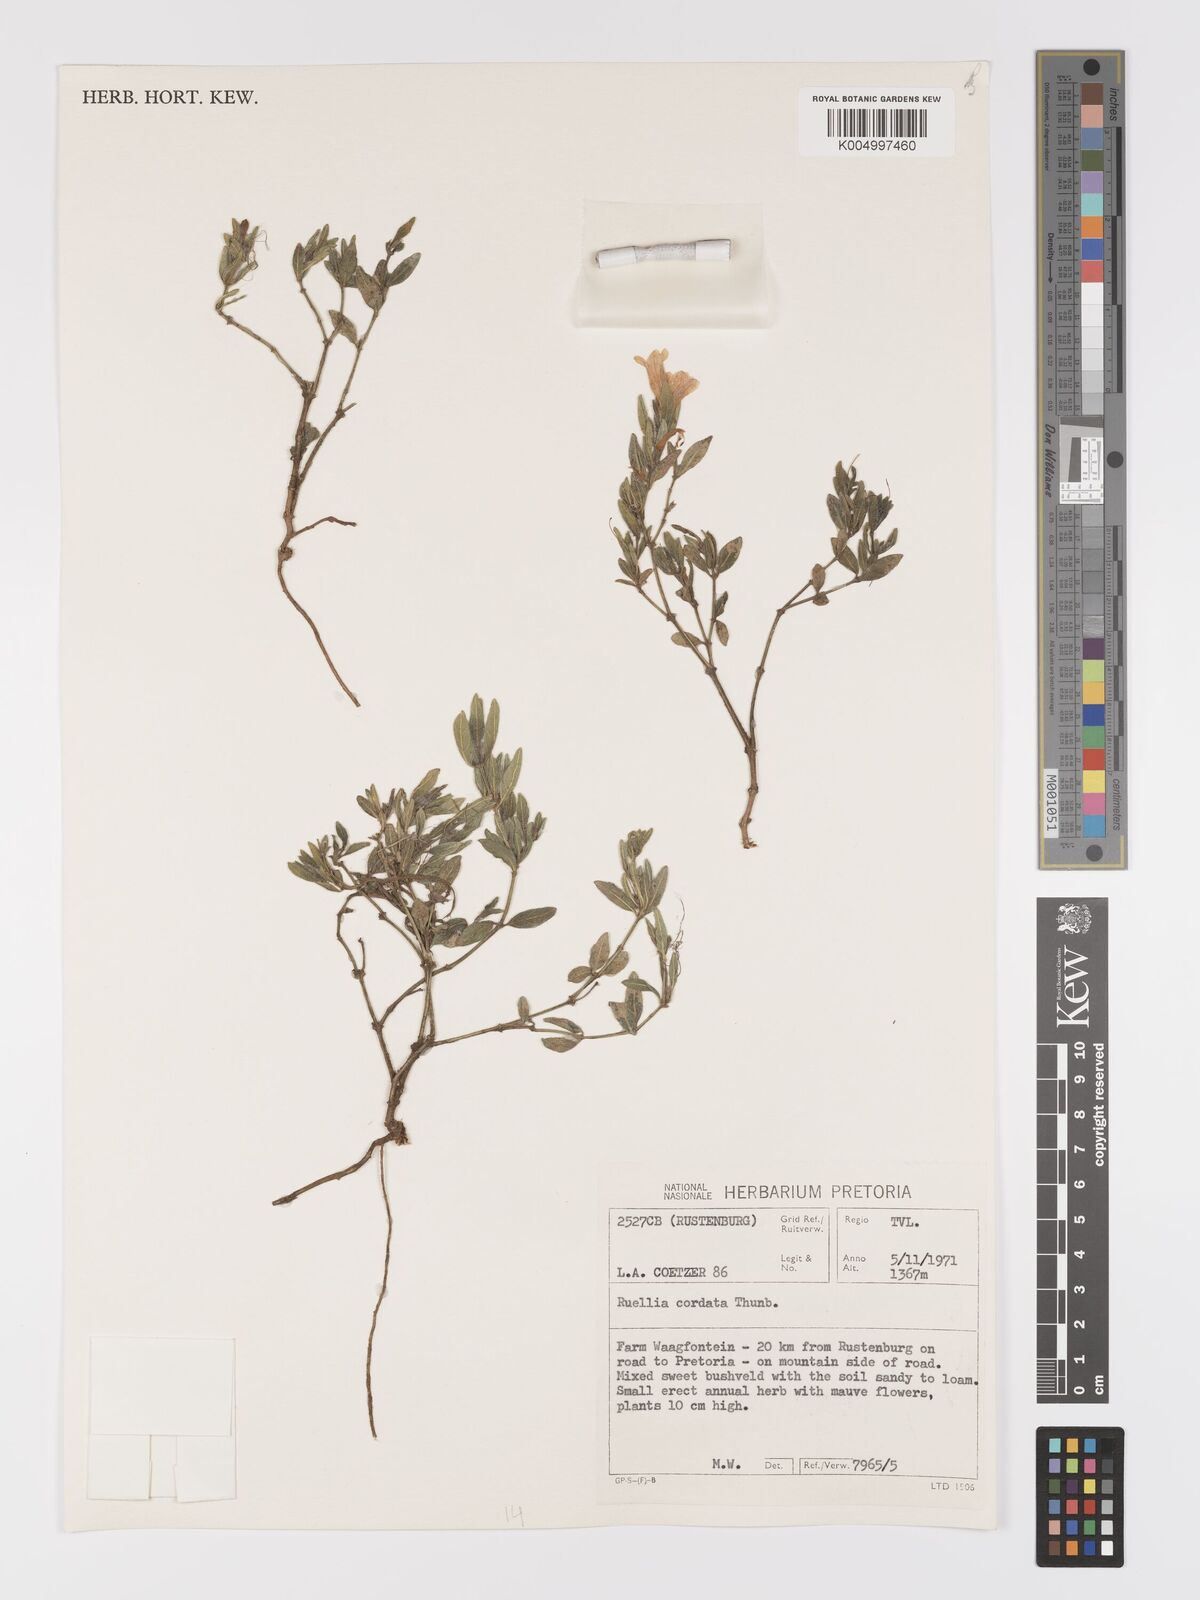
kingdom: Plantae
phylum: Tracheophyta
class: Magnoliopsida
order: Lamiales
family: Acanthaceae
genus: Ruellia
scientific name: Ruellia cordata
